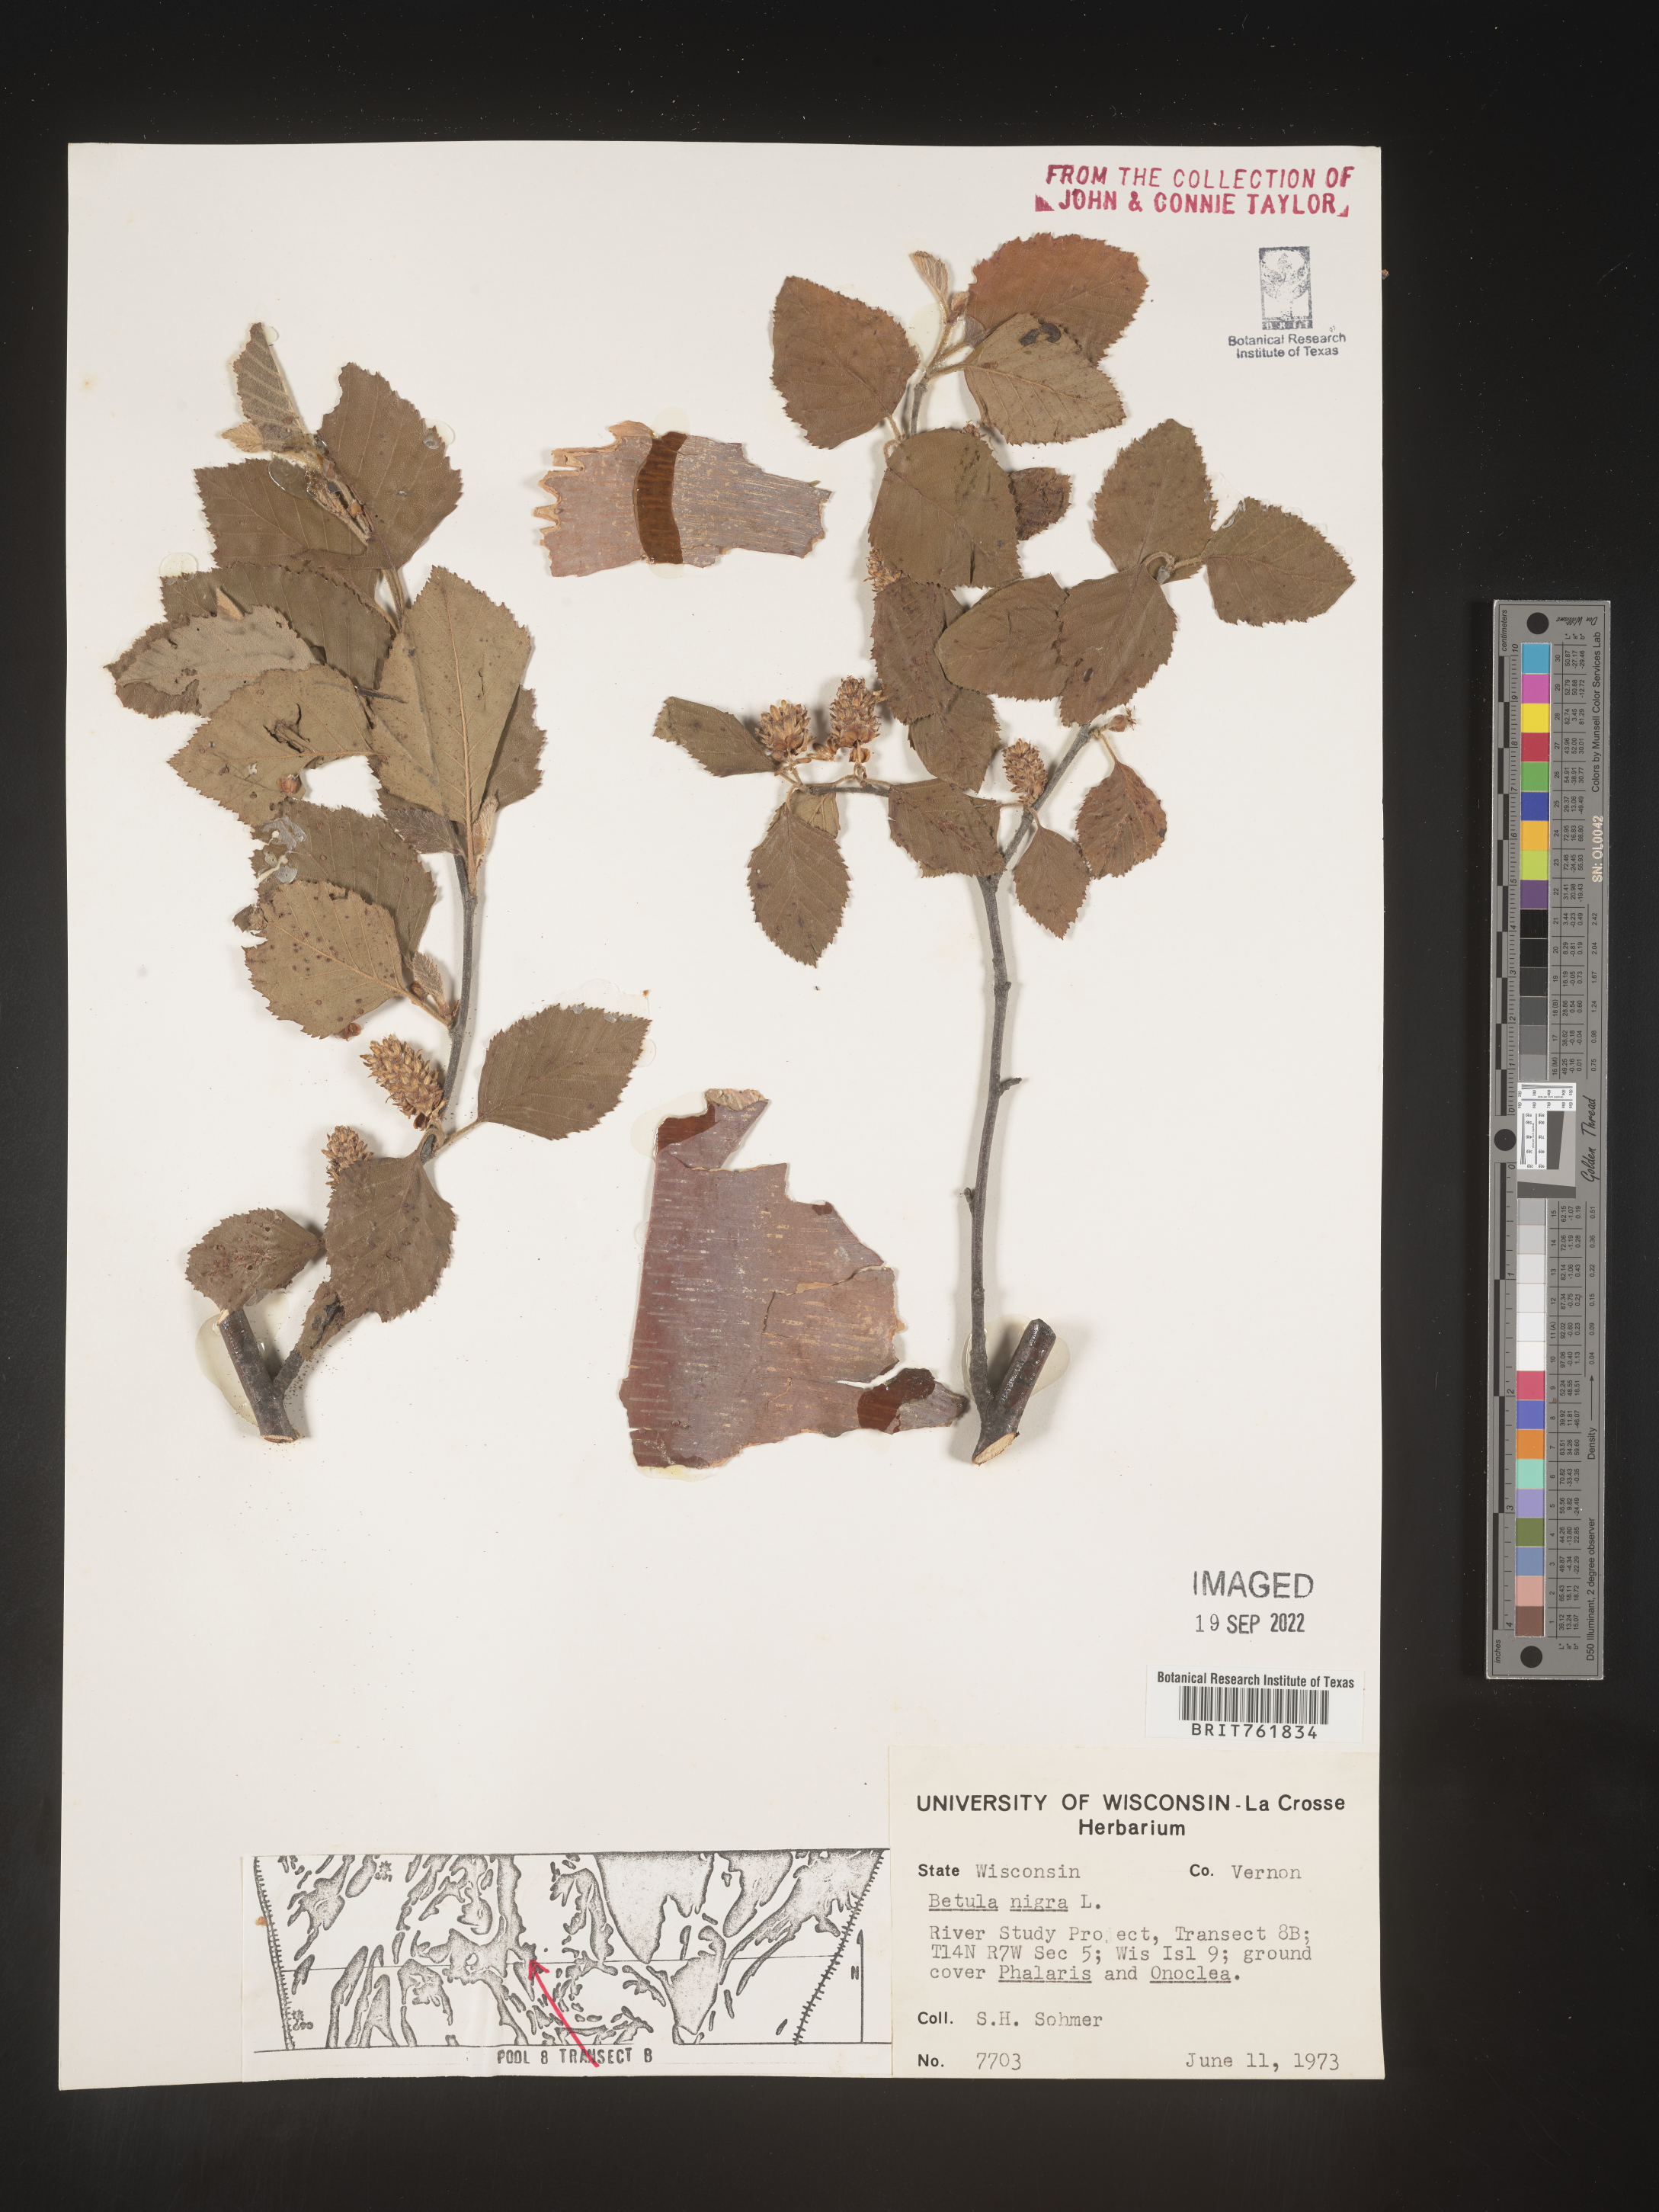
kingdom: Plantae
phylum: Tracheophyta
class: Magnoliopsida
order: Fagales
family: Betulaceae
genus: Betula
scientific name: Betula nigra
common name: Black birch
